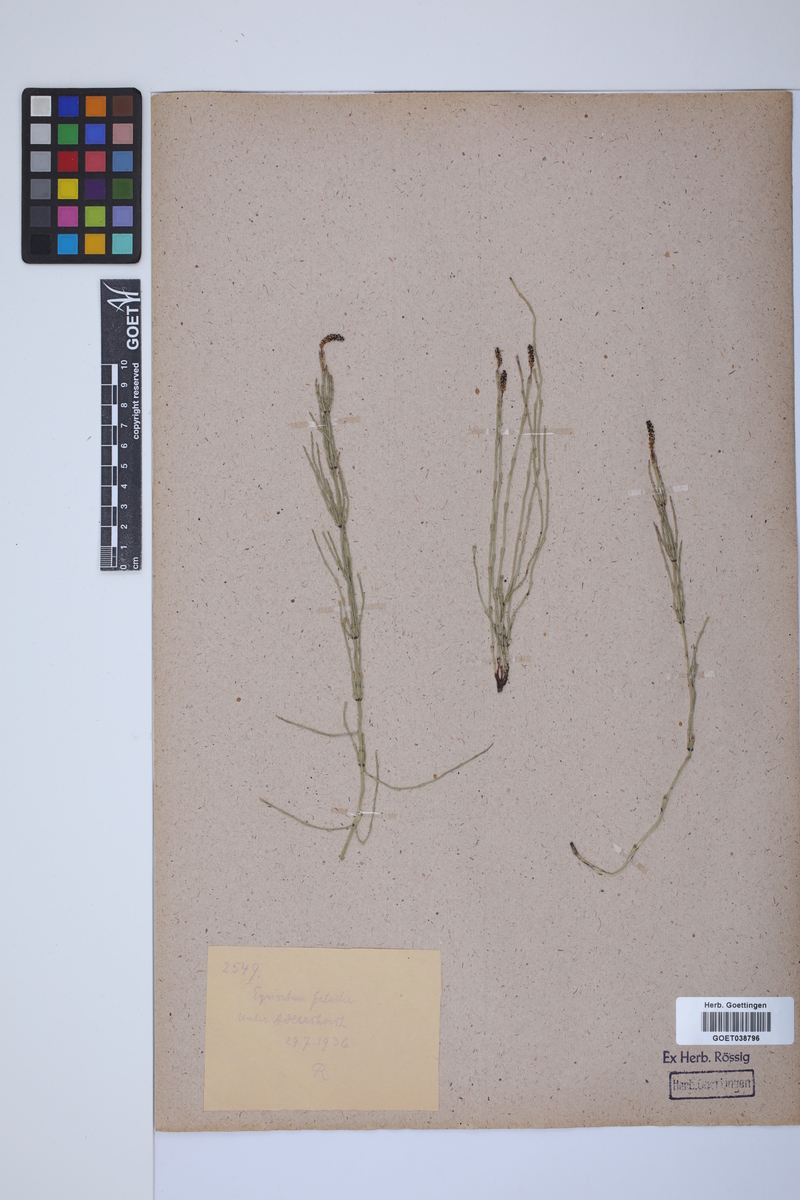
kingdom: Plantae
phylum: Tracheophyta
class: Polypodiopsida
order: Equisetales
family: Equisetaceae
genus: Equisetum
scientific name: Equisetum palustre
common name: Marsh horsetail
